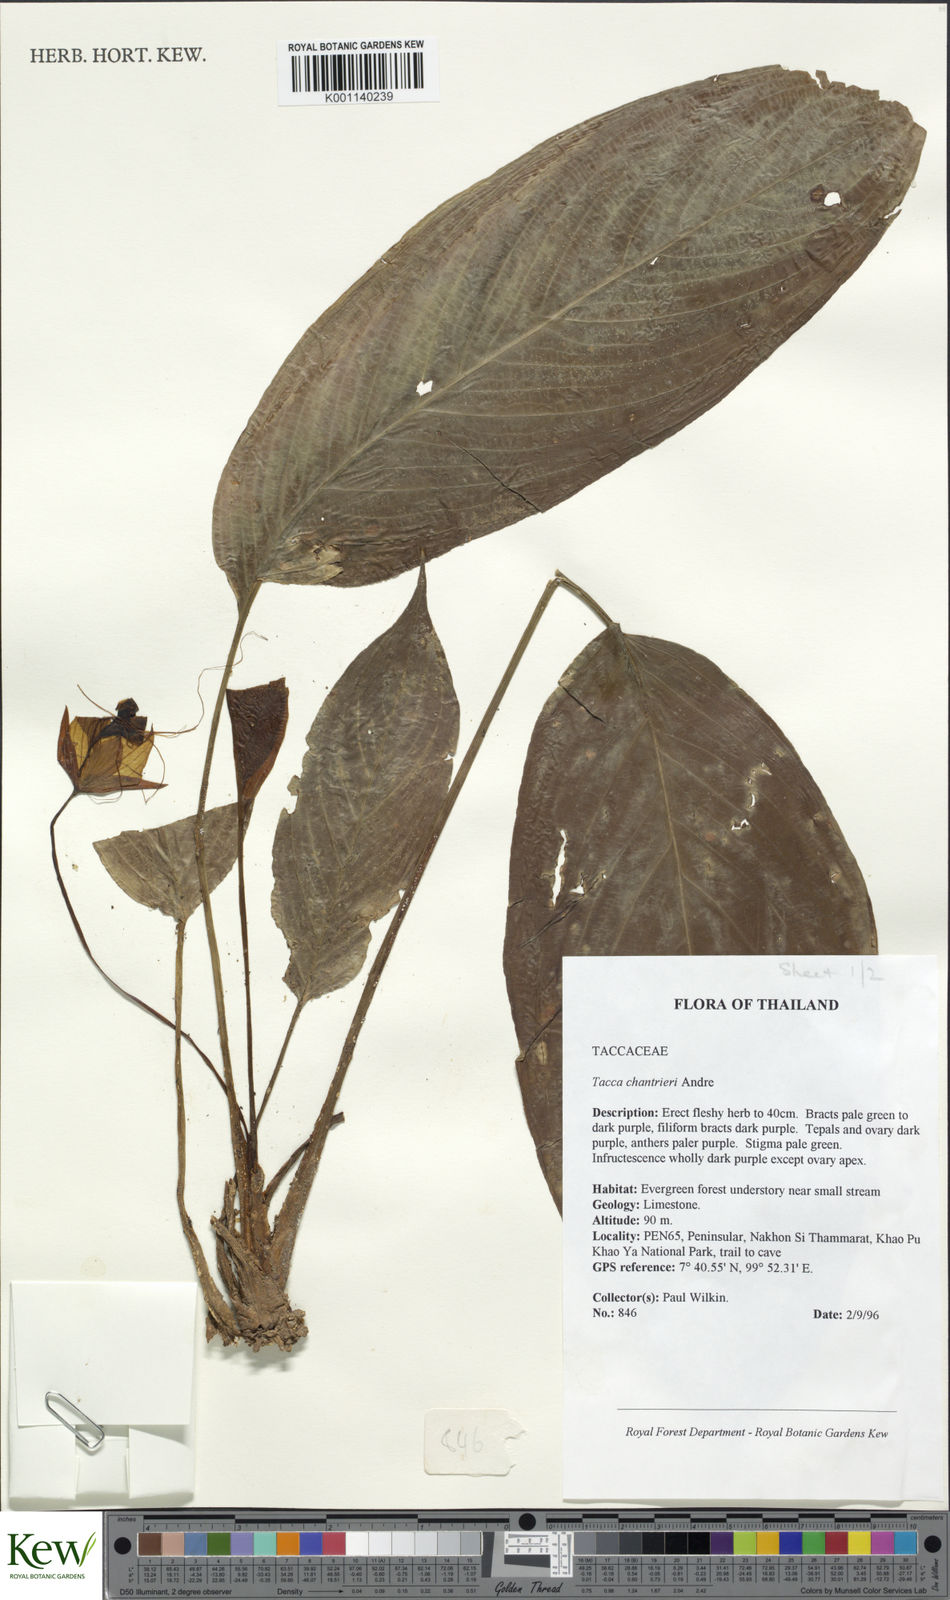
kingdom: Plantae
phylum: Tracheophyta
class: Liliopsida
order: Dioscoreales
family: Dioscoreaceae
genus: Tacca
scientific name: Tacca
